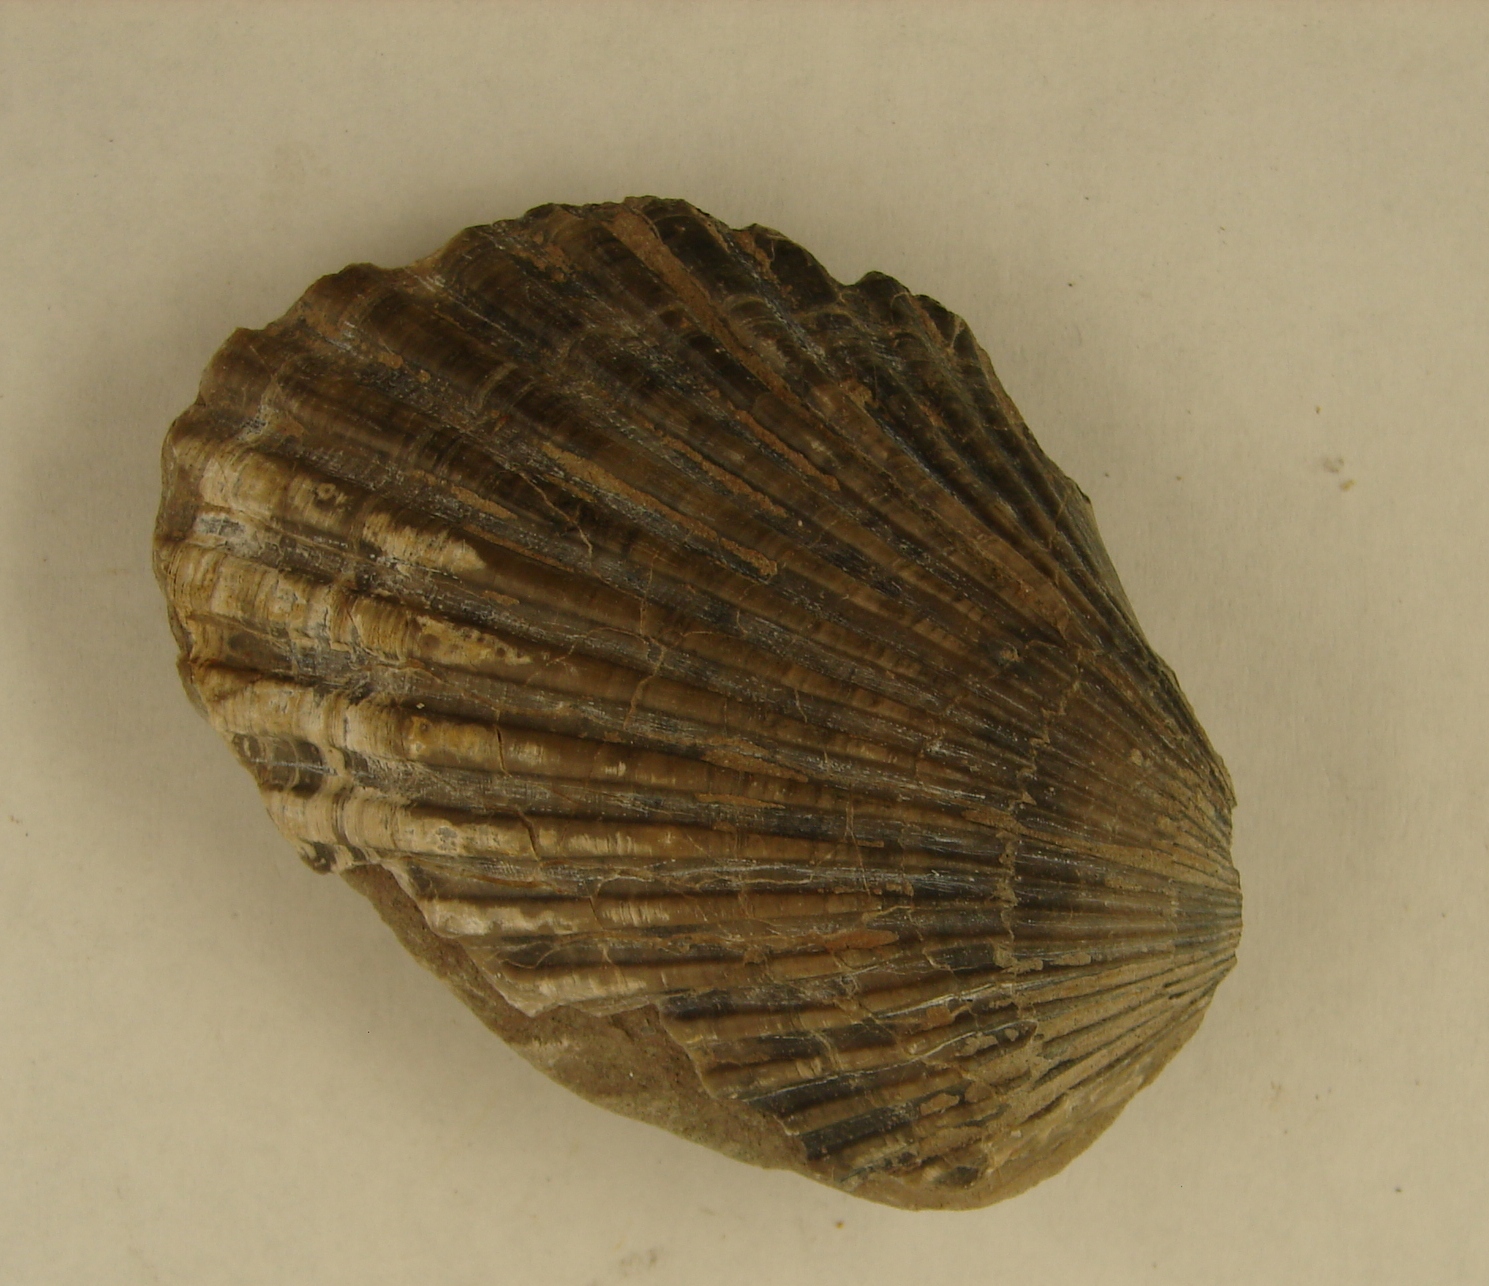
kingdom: Animalia
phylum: Mollusca
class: Bivalvia
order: Pectinida
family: Pectinidae
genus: Pseudopecten
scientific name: Pseudopecten equivalvis
